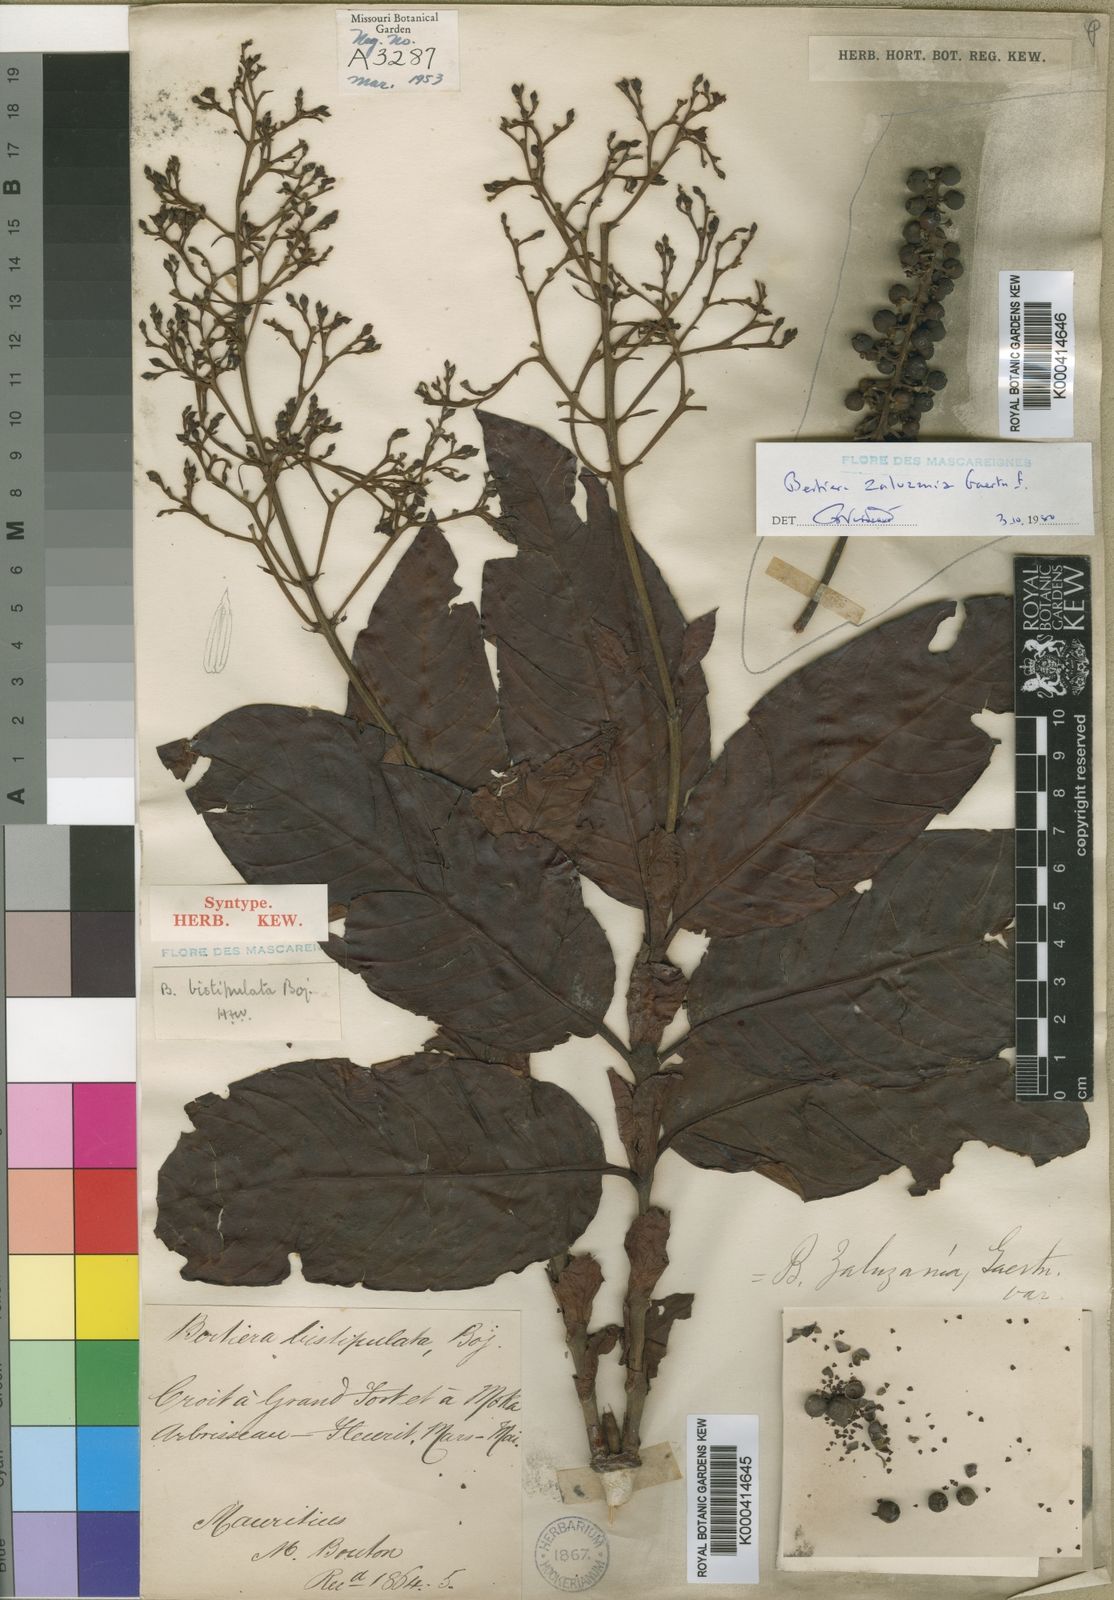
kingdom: Plantae
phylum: Tracheophyta
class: Magnoliopsida
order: Gentianales
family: Rubiaceae
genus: Bertiera
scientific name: Bertiera
